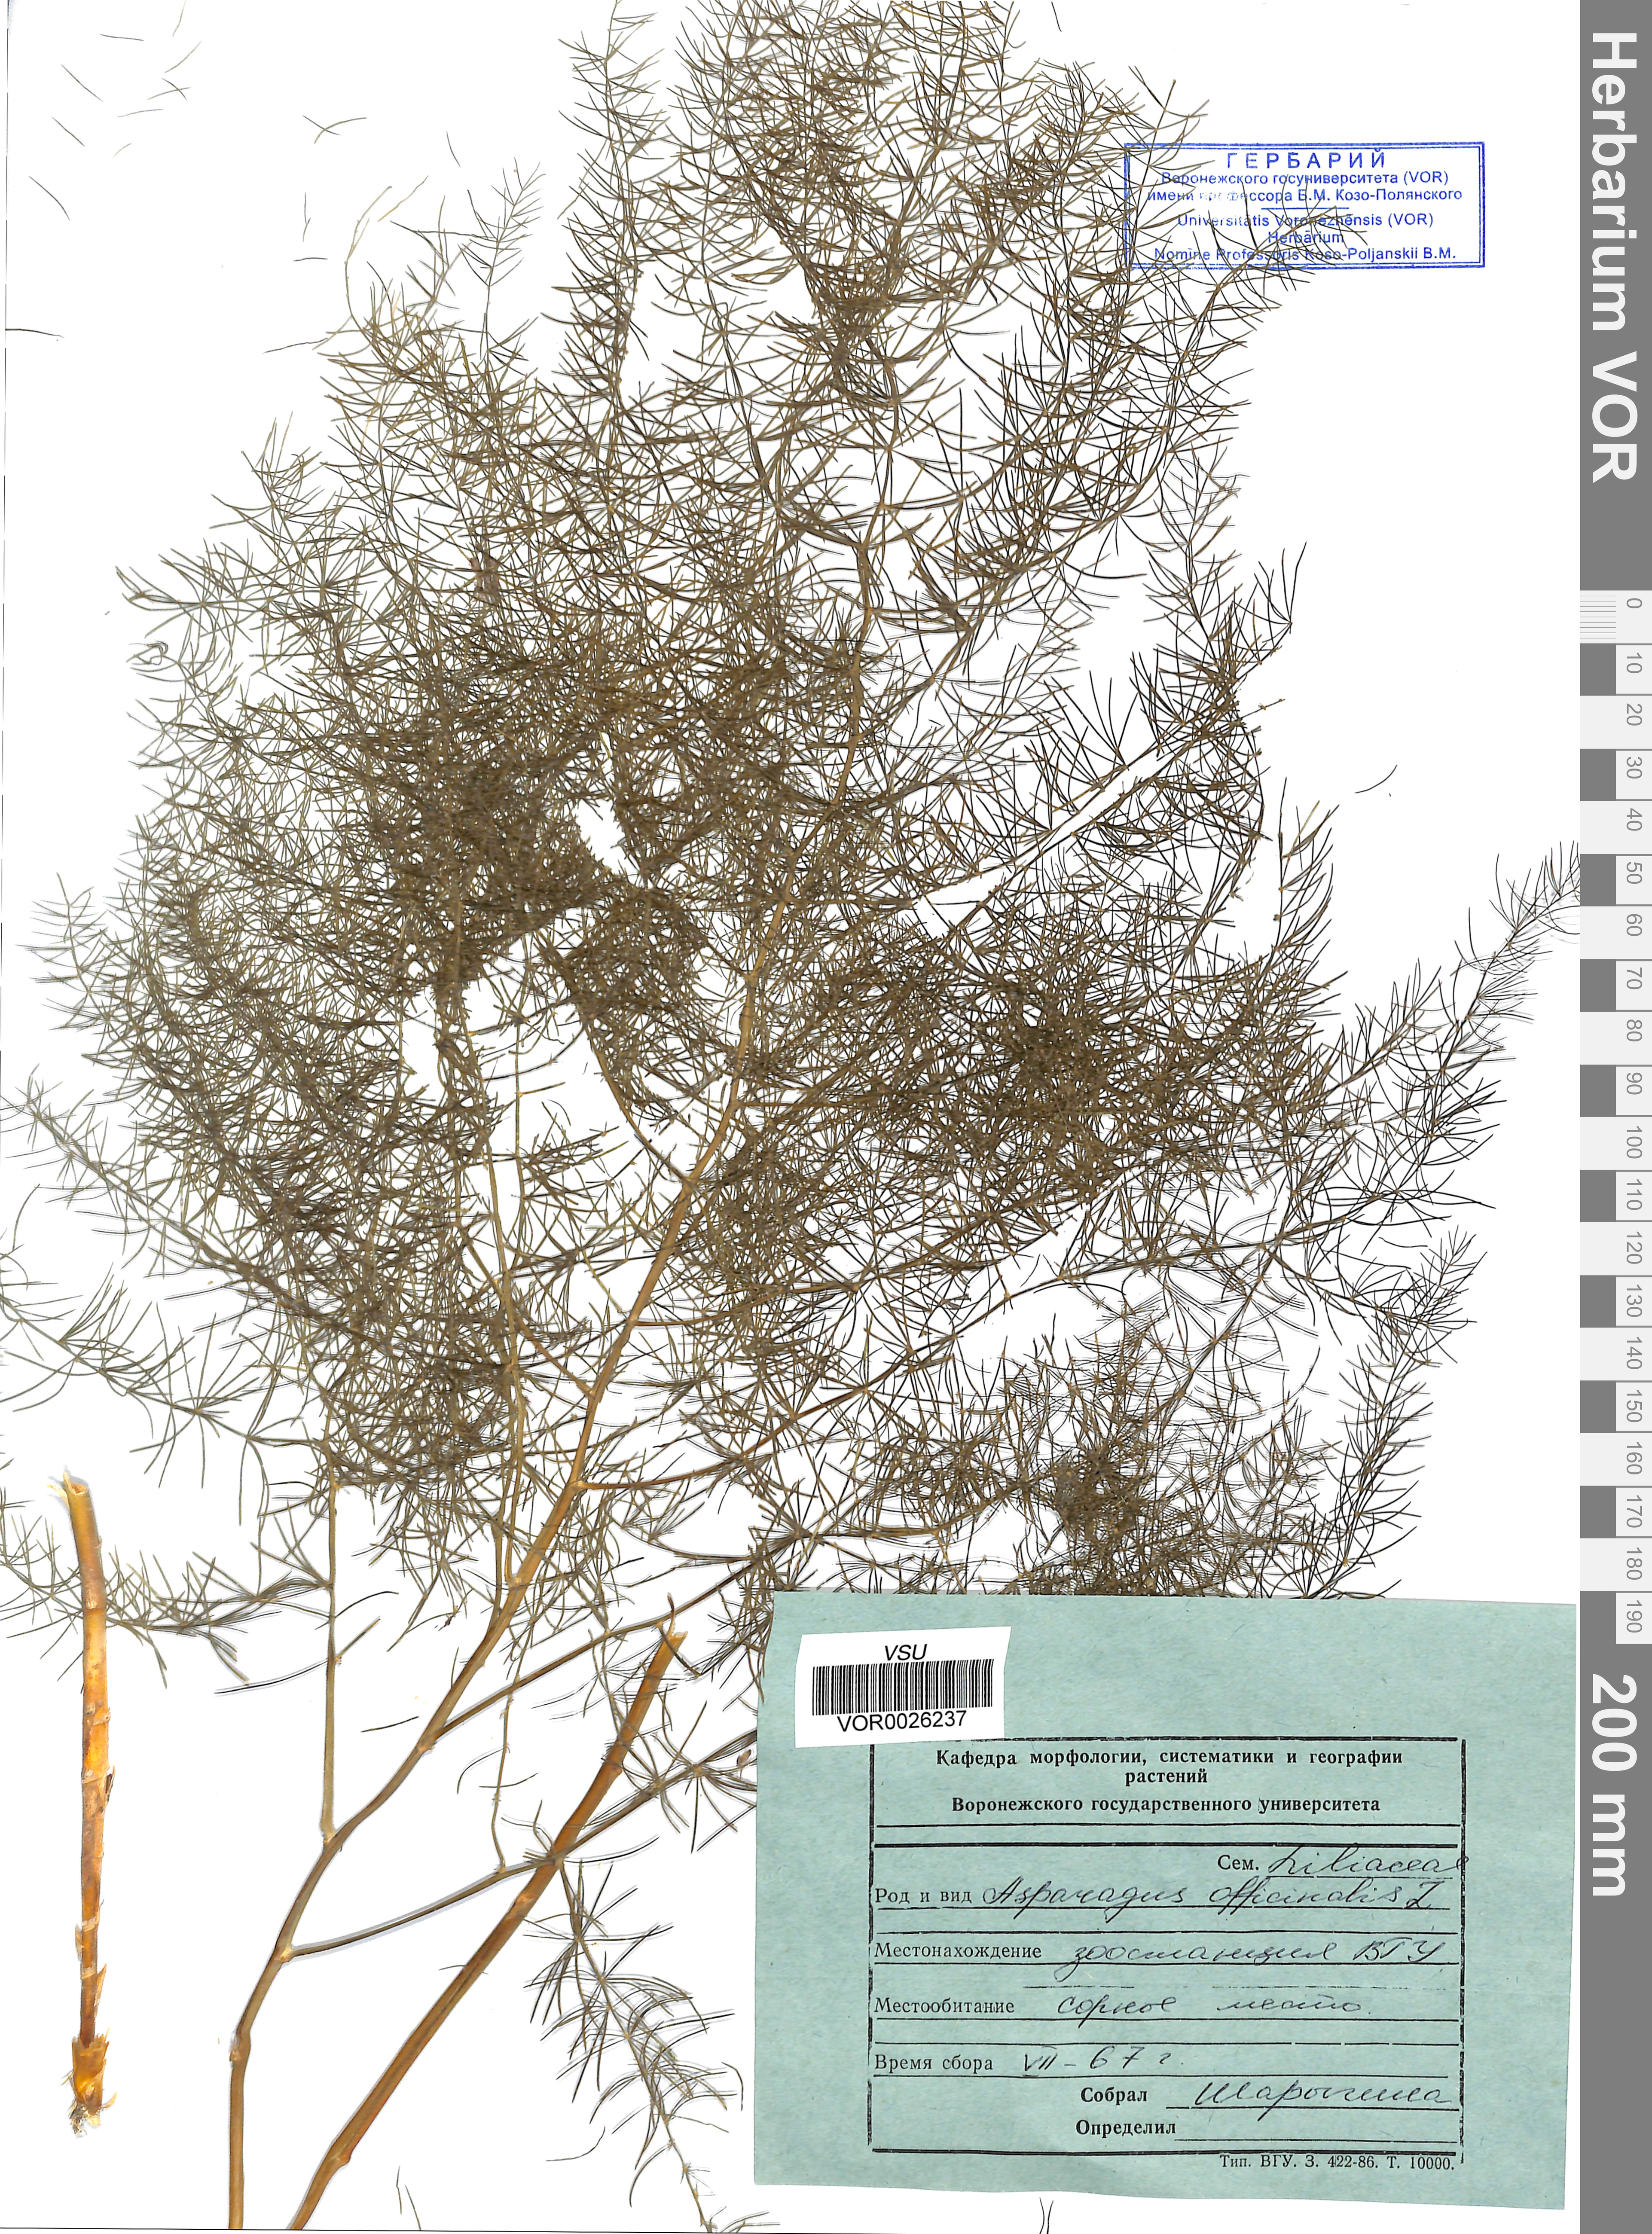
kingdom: Plantae
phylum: Tracheophyta
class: Liliopsida
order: Asparagales
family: Asparagaceae
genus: Asparagus
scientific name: Asparagus officinalis
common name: Garden asparagus
